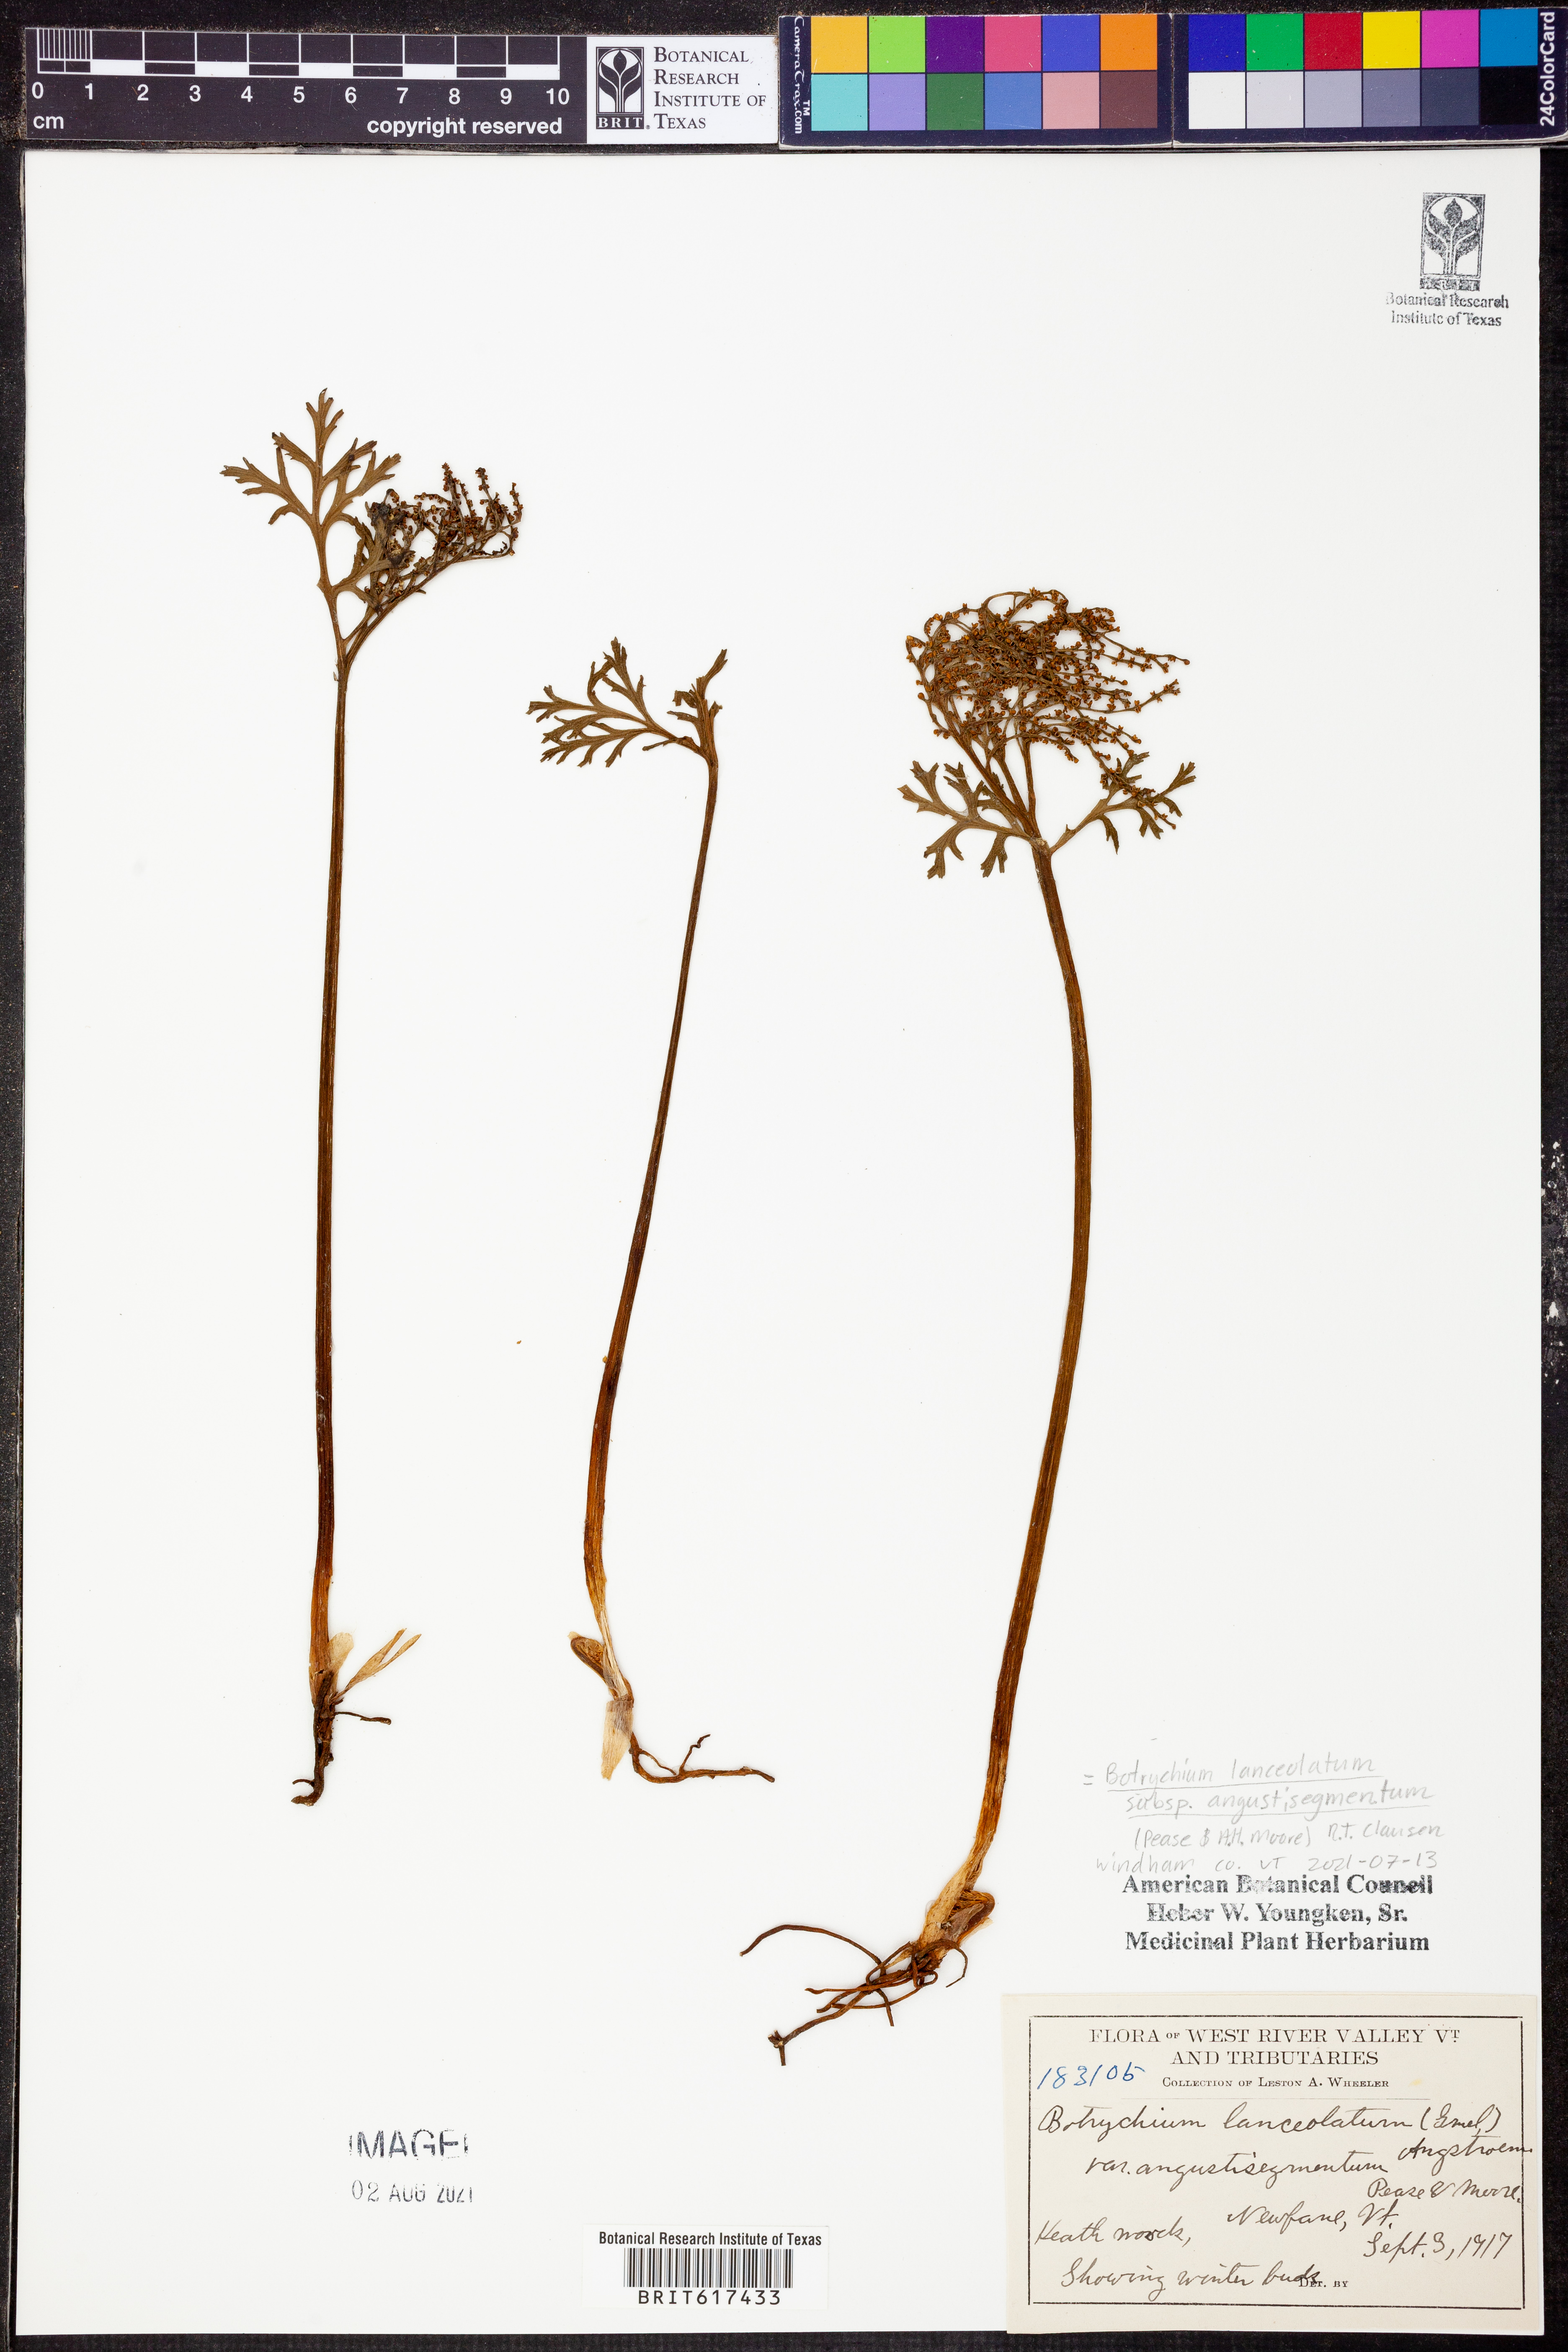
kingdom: Plantae
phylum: Tracheophyta
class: Polypodiopsida
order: Ophioglossales
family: Ophioglossaceae
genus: Botrychium
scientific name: Botrychium angustisegmentum
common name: Narrow triangle moonwort
